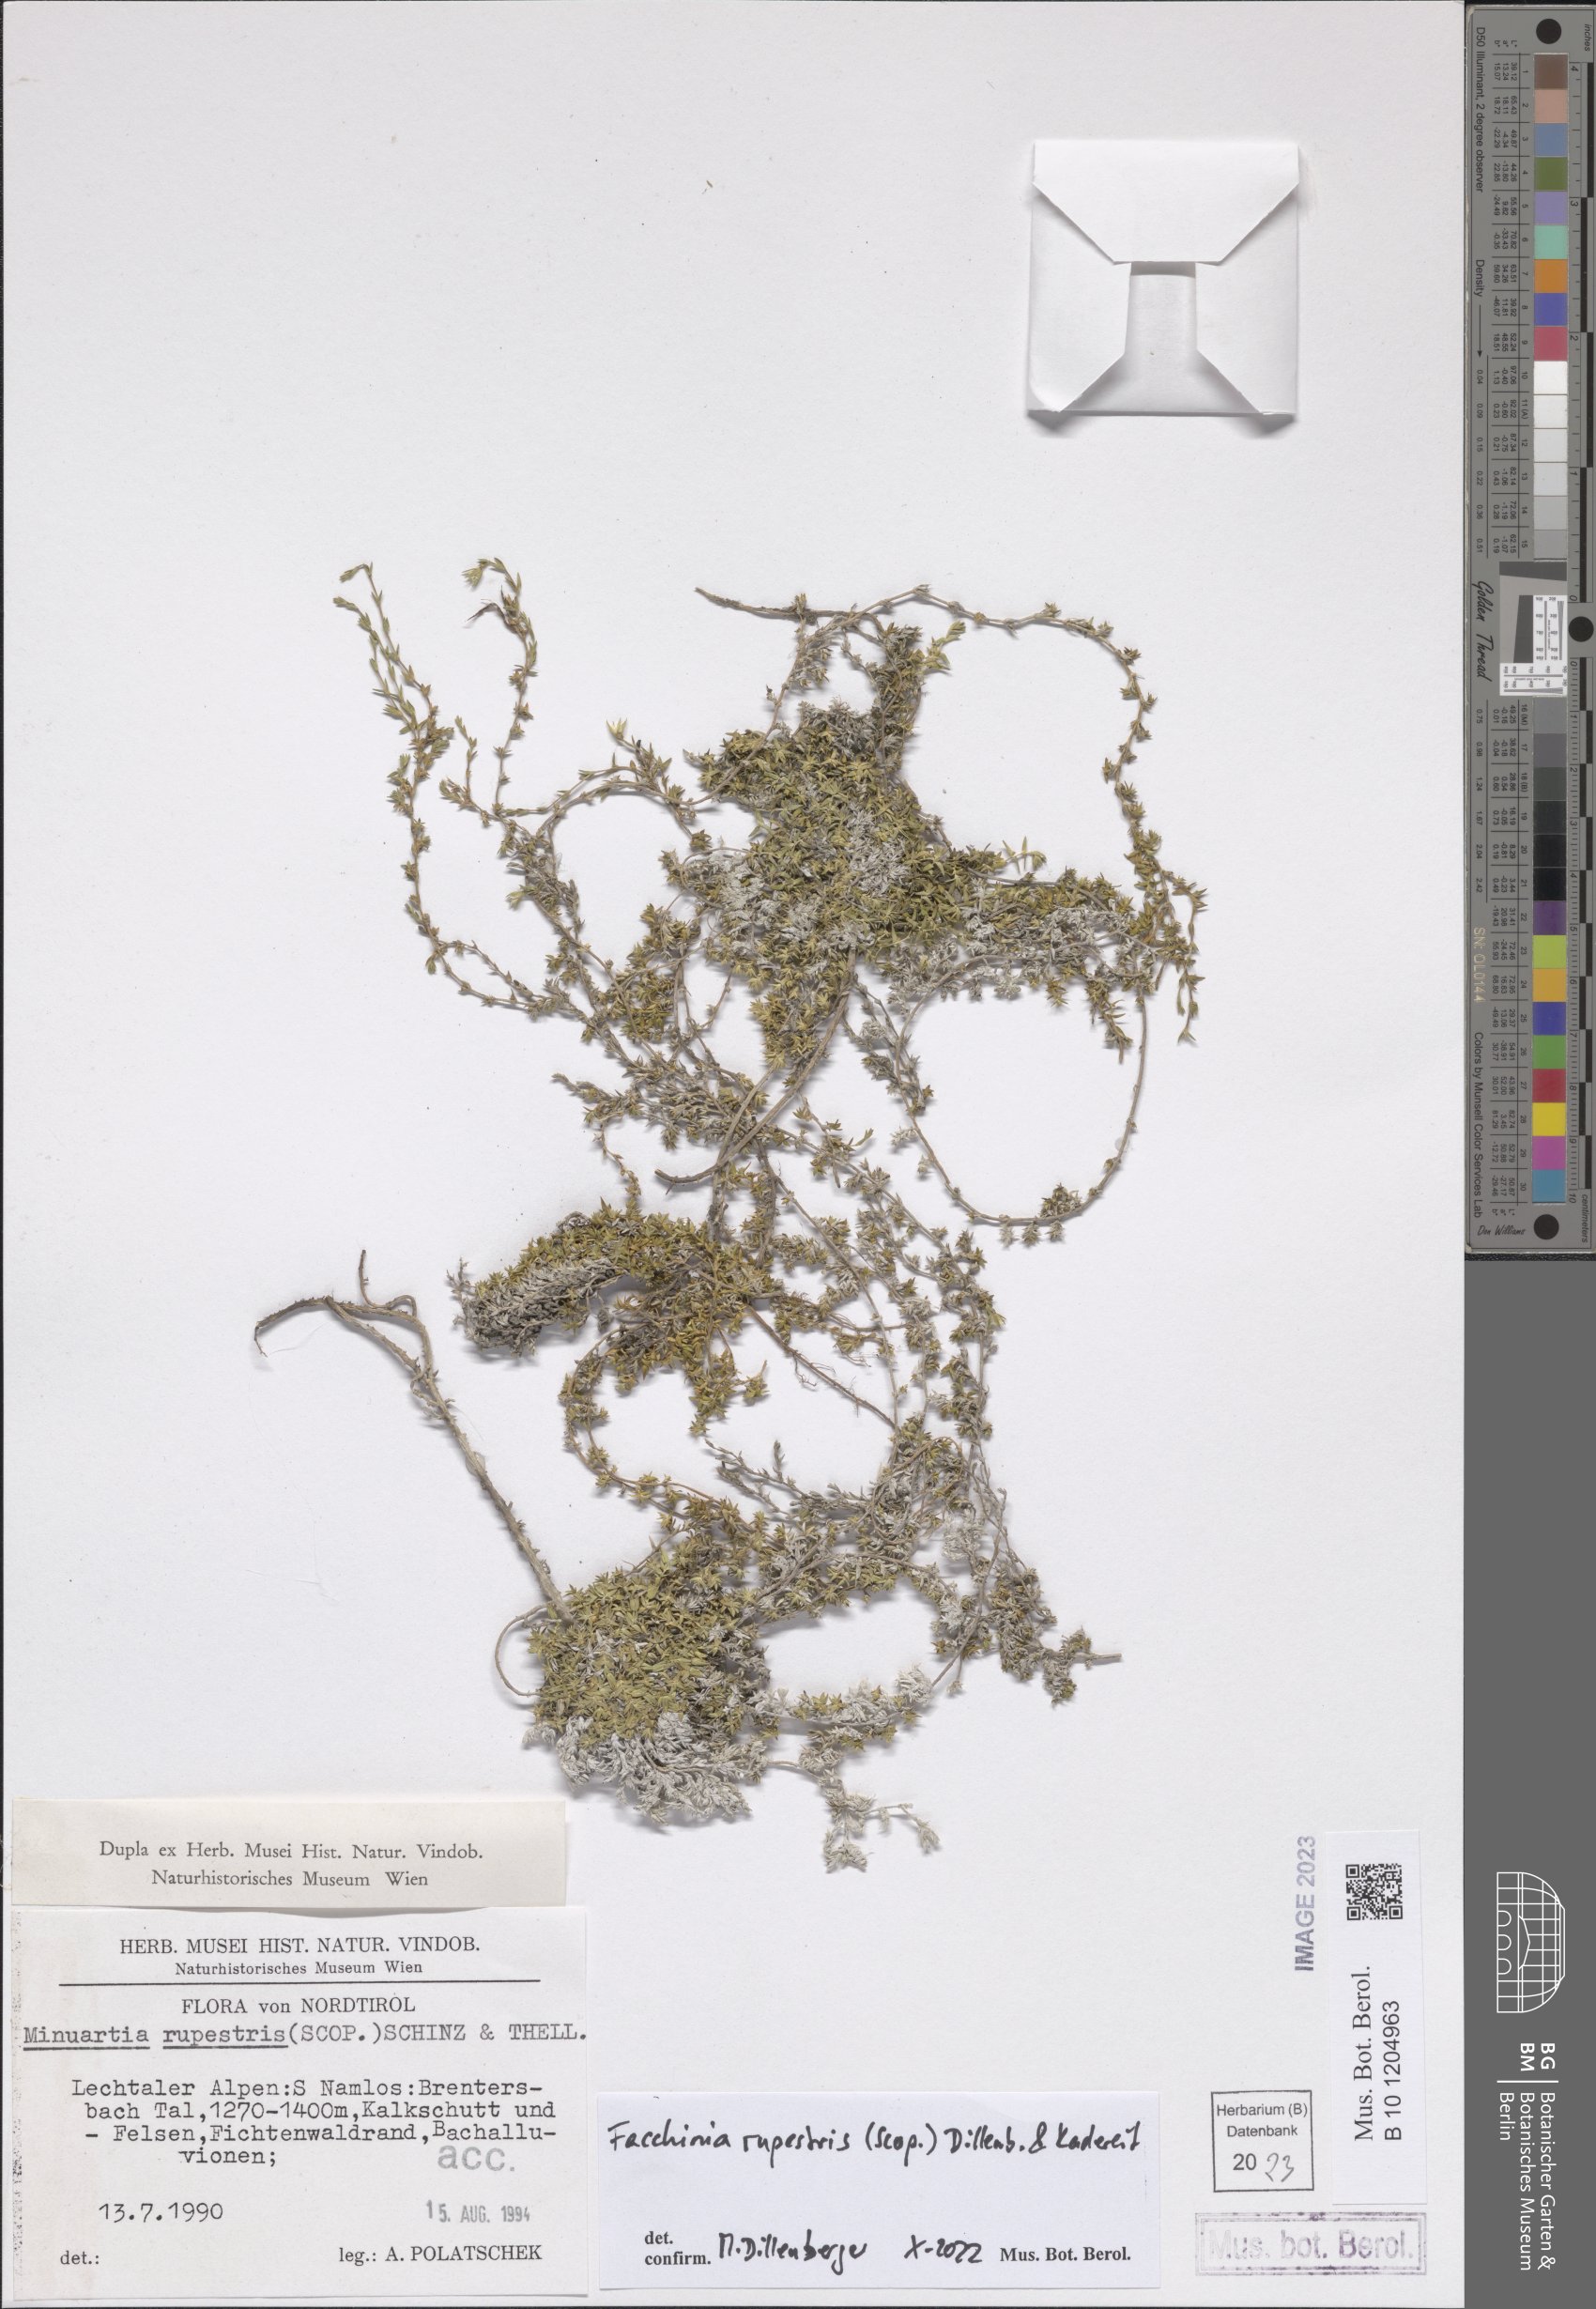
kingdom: Plantae
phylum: Tracheophyta
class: Magnoliopsida
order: Caryophyllales
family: Caryophyllaceae
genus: Facchinia
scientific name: Facchinia rupestris
